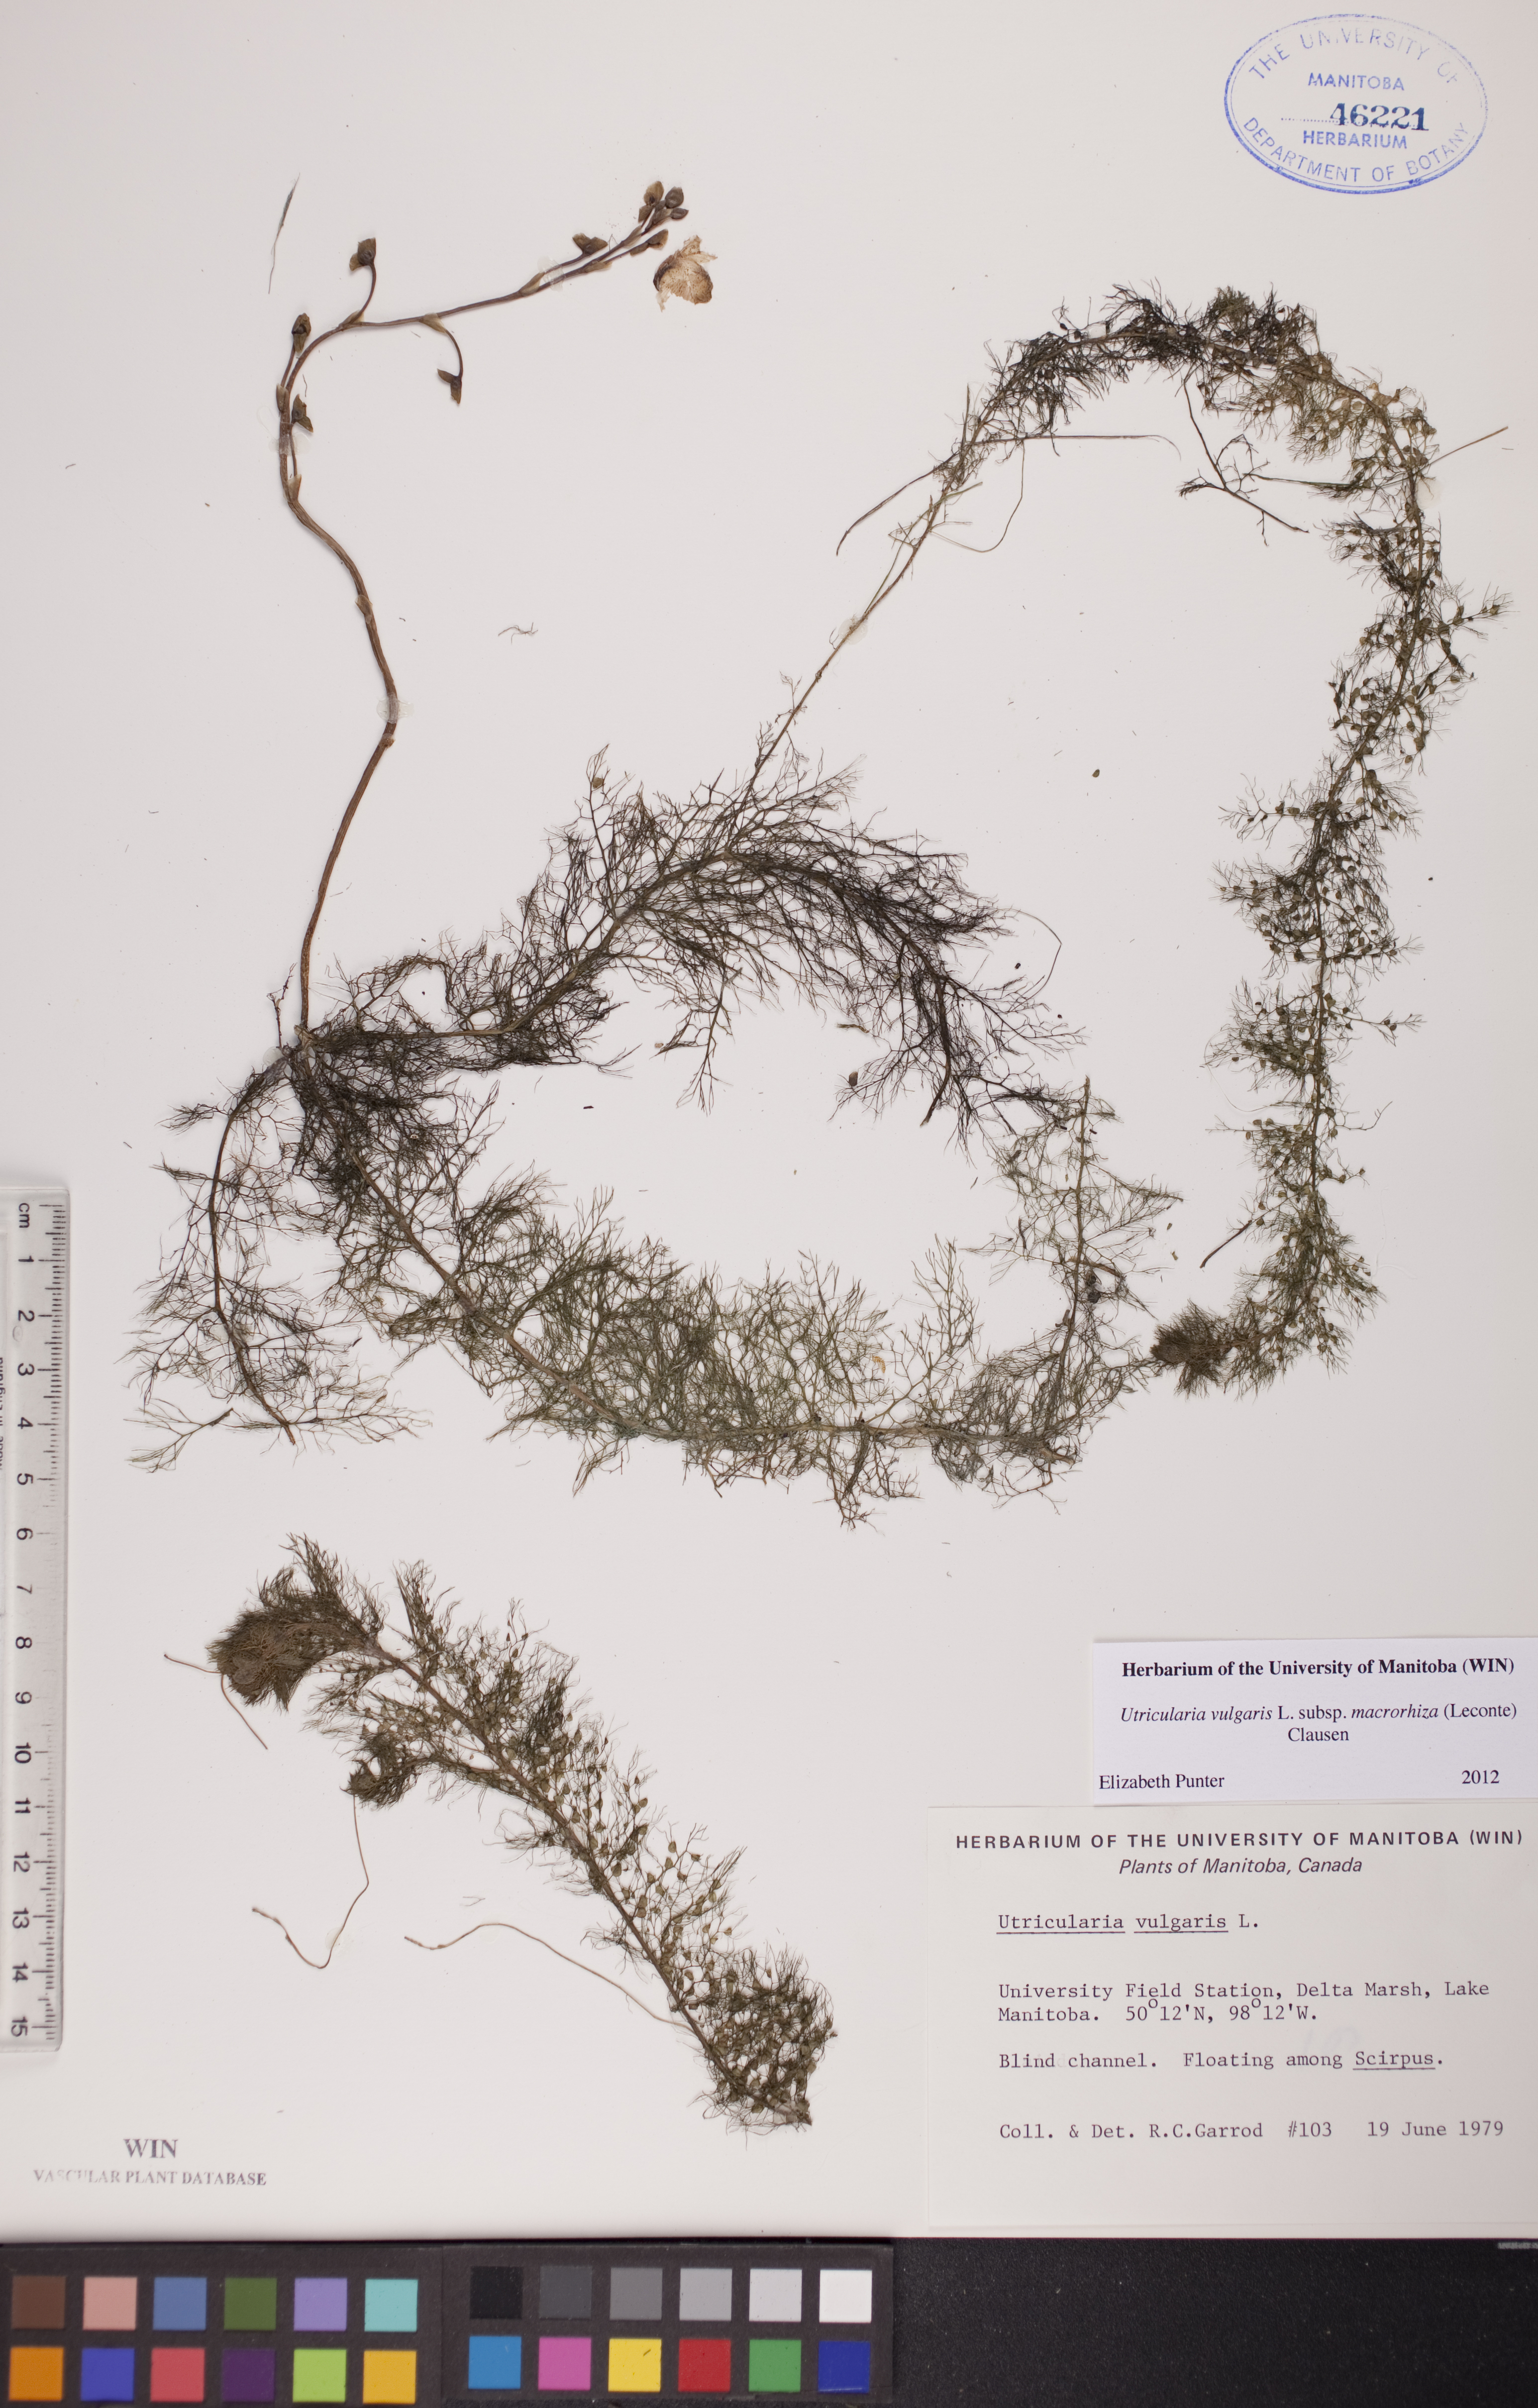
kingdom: Plantae
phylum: Tracheophyta
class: Magnoliopsida
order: Lamiales
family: Lentibulariaceae
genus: Utricularia
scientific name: Utricularia macrorhiza
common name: Common bladderwort
